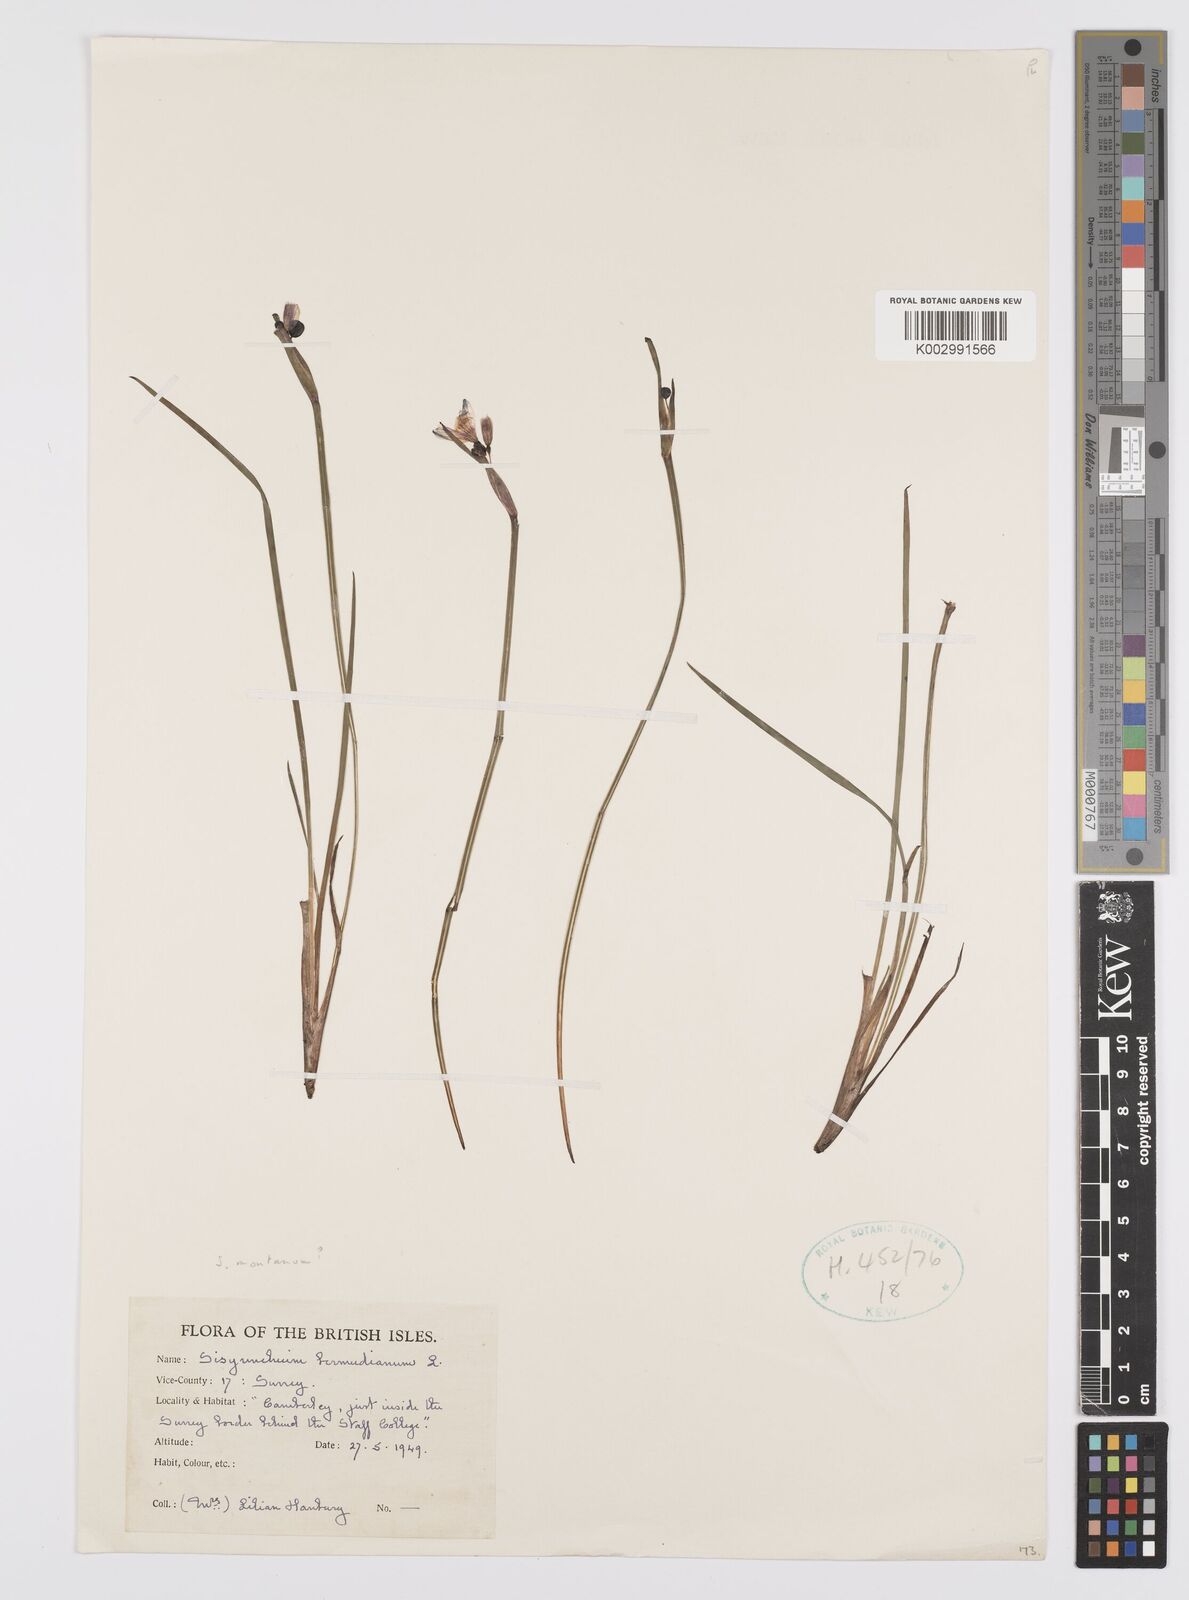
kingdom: Plantae
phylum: Tracheophyta
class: Liliopsida
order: Asparagales
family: Iridaceae
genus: Sisyrinchium
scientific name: Sisyrinchium angustifolium
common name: Narrow-leaf blue-eyed-grass
